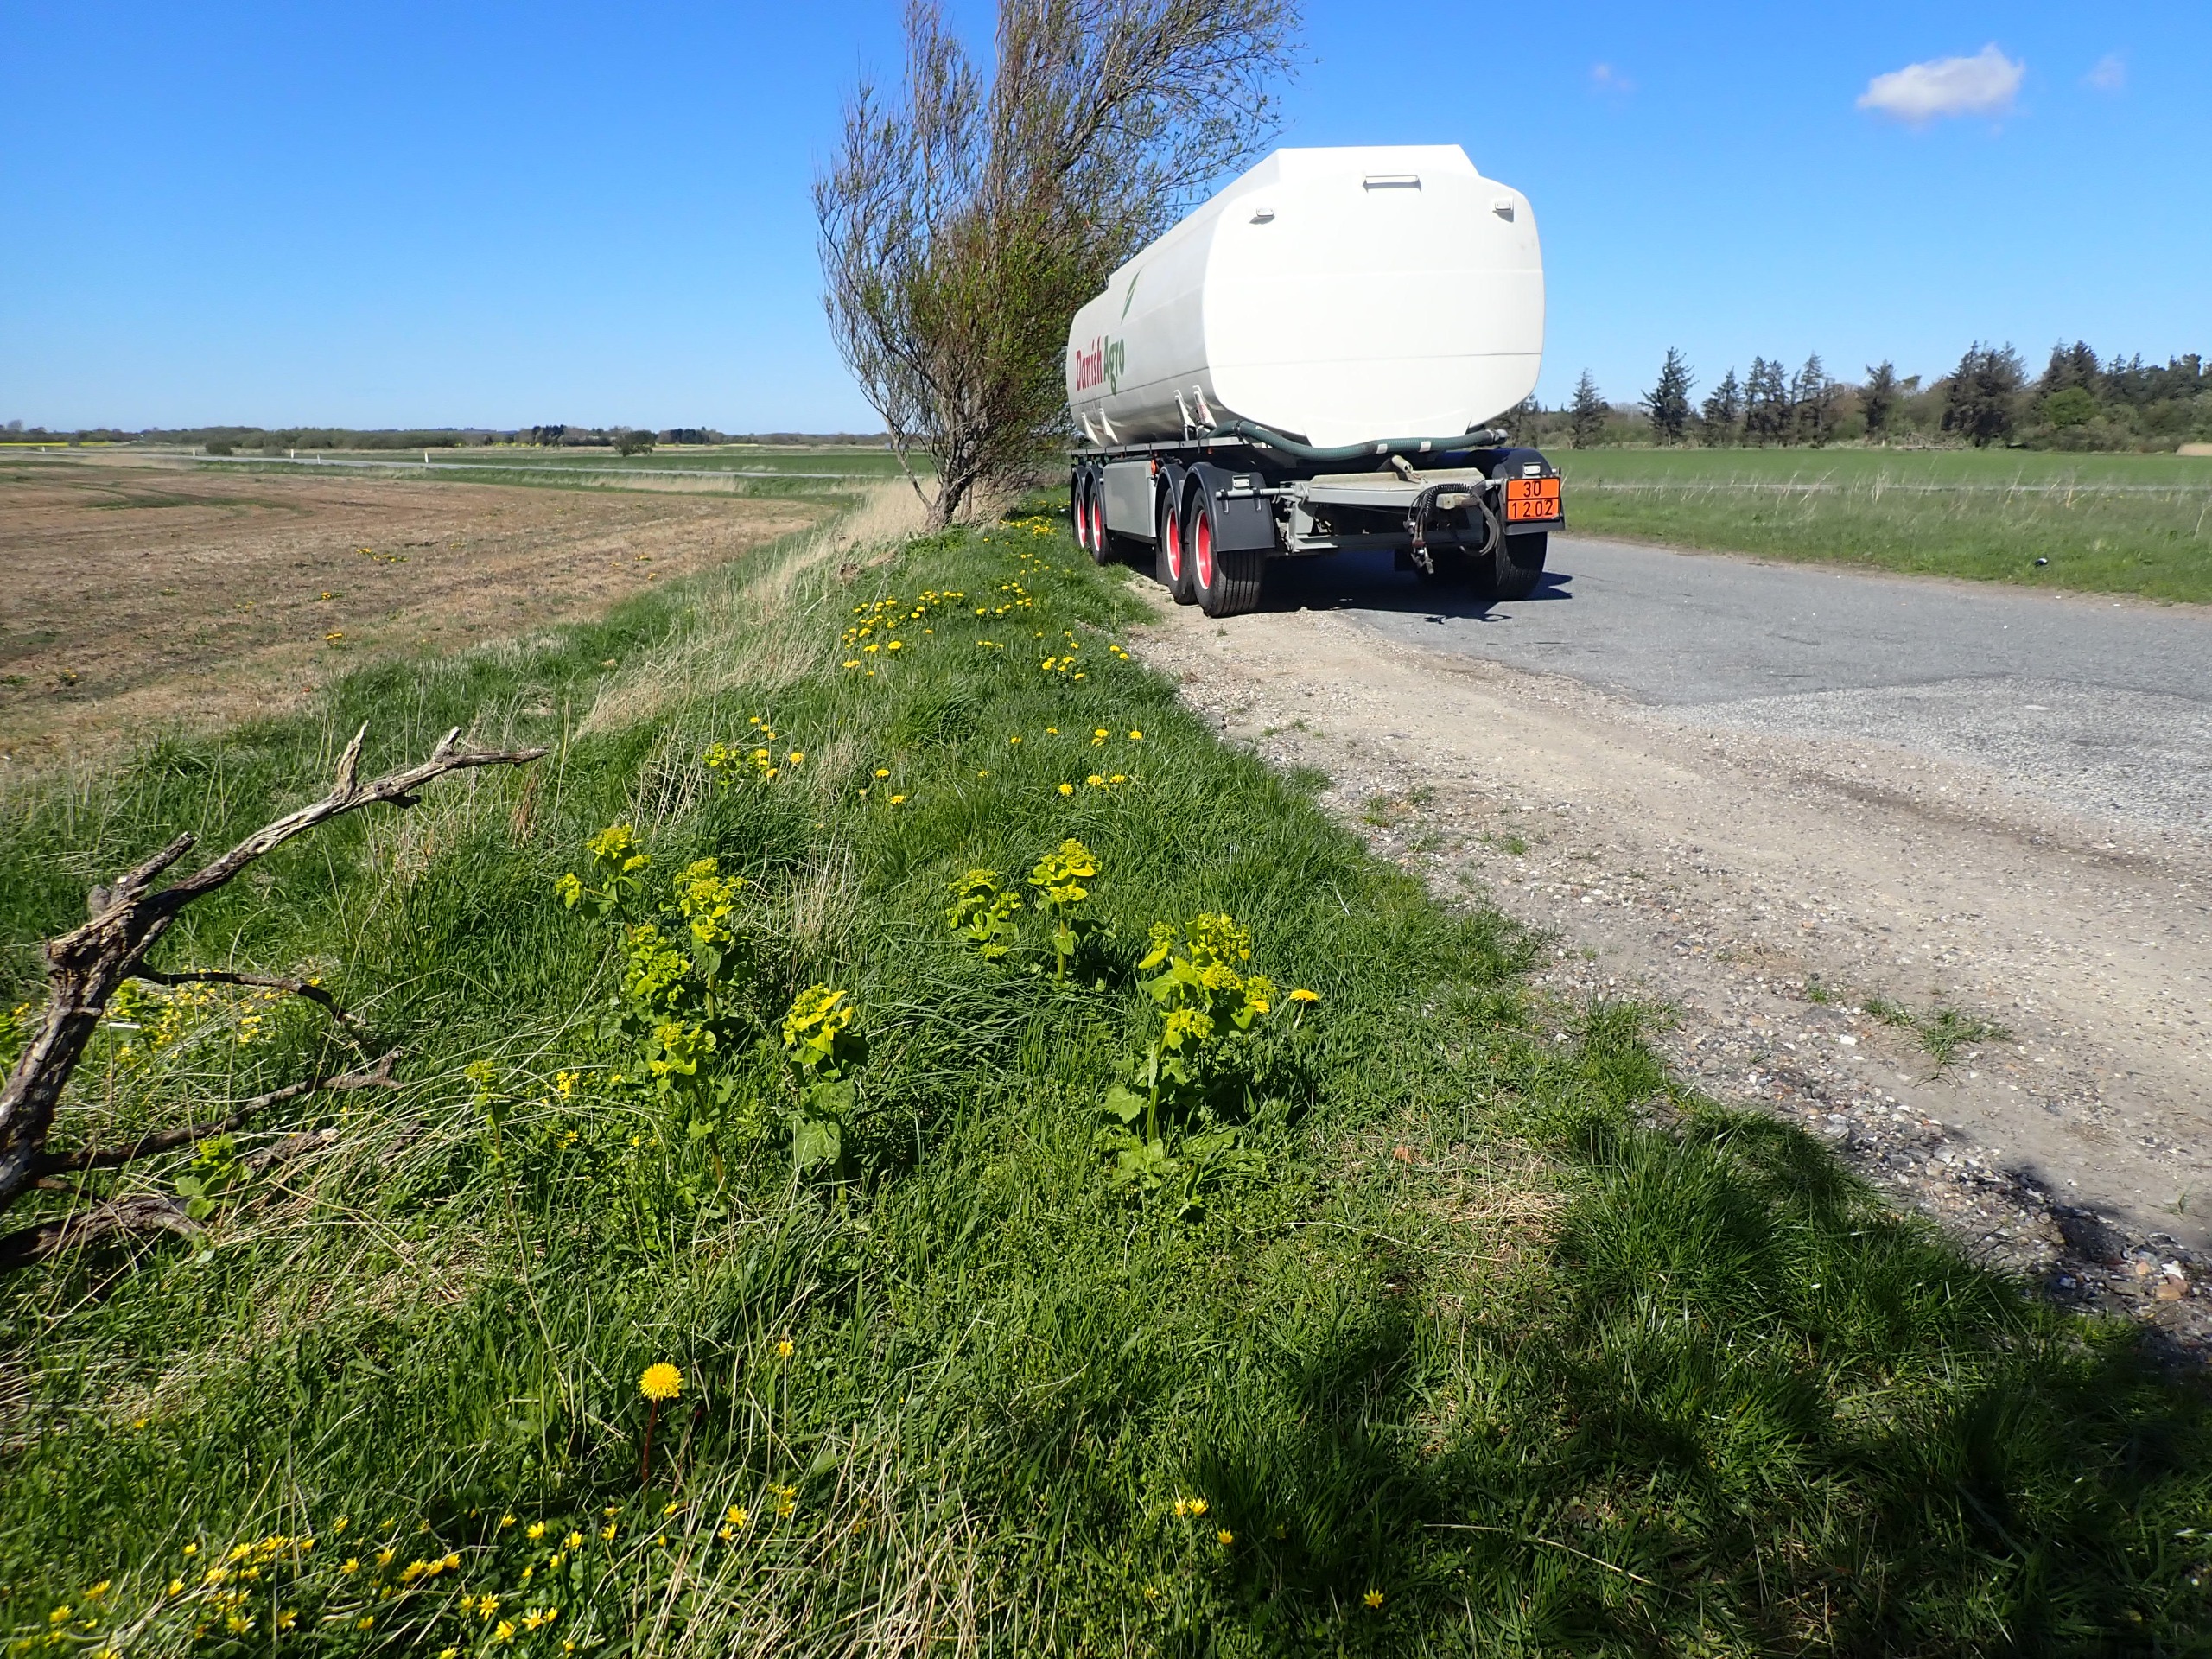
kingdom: Plantae
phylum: Tracheophyta
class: Magnoliopsida
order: Apiales
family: Apiaceae
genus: Smyrnium
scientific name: Smyrnium perfoliatum
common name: Lundgylden
